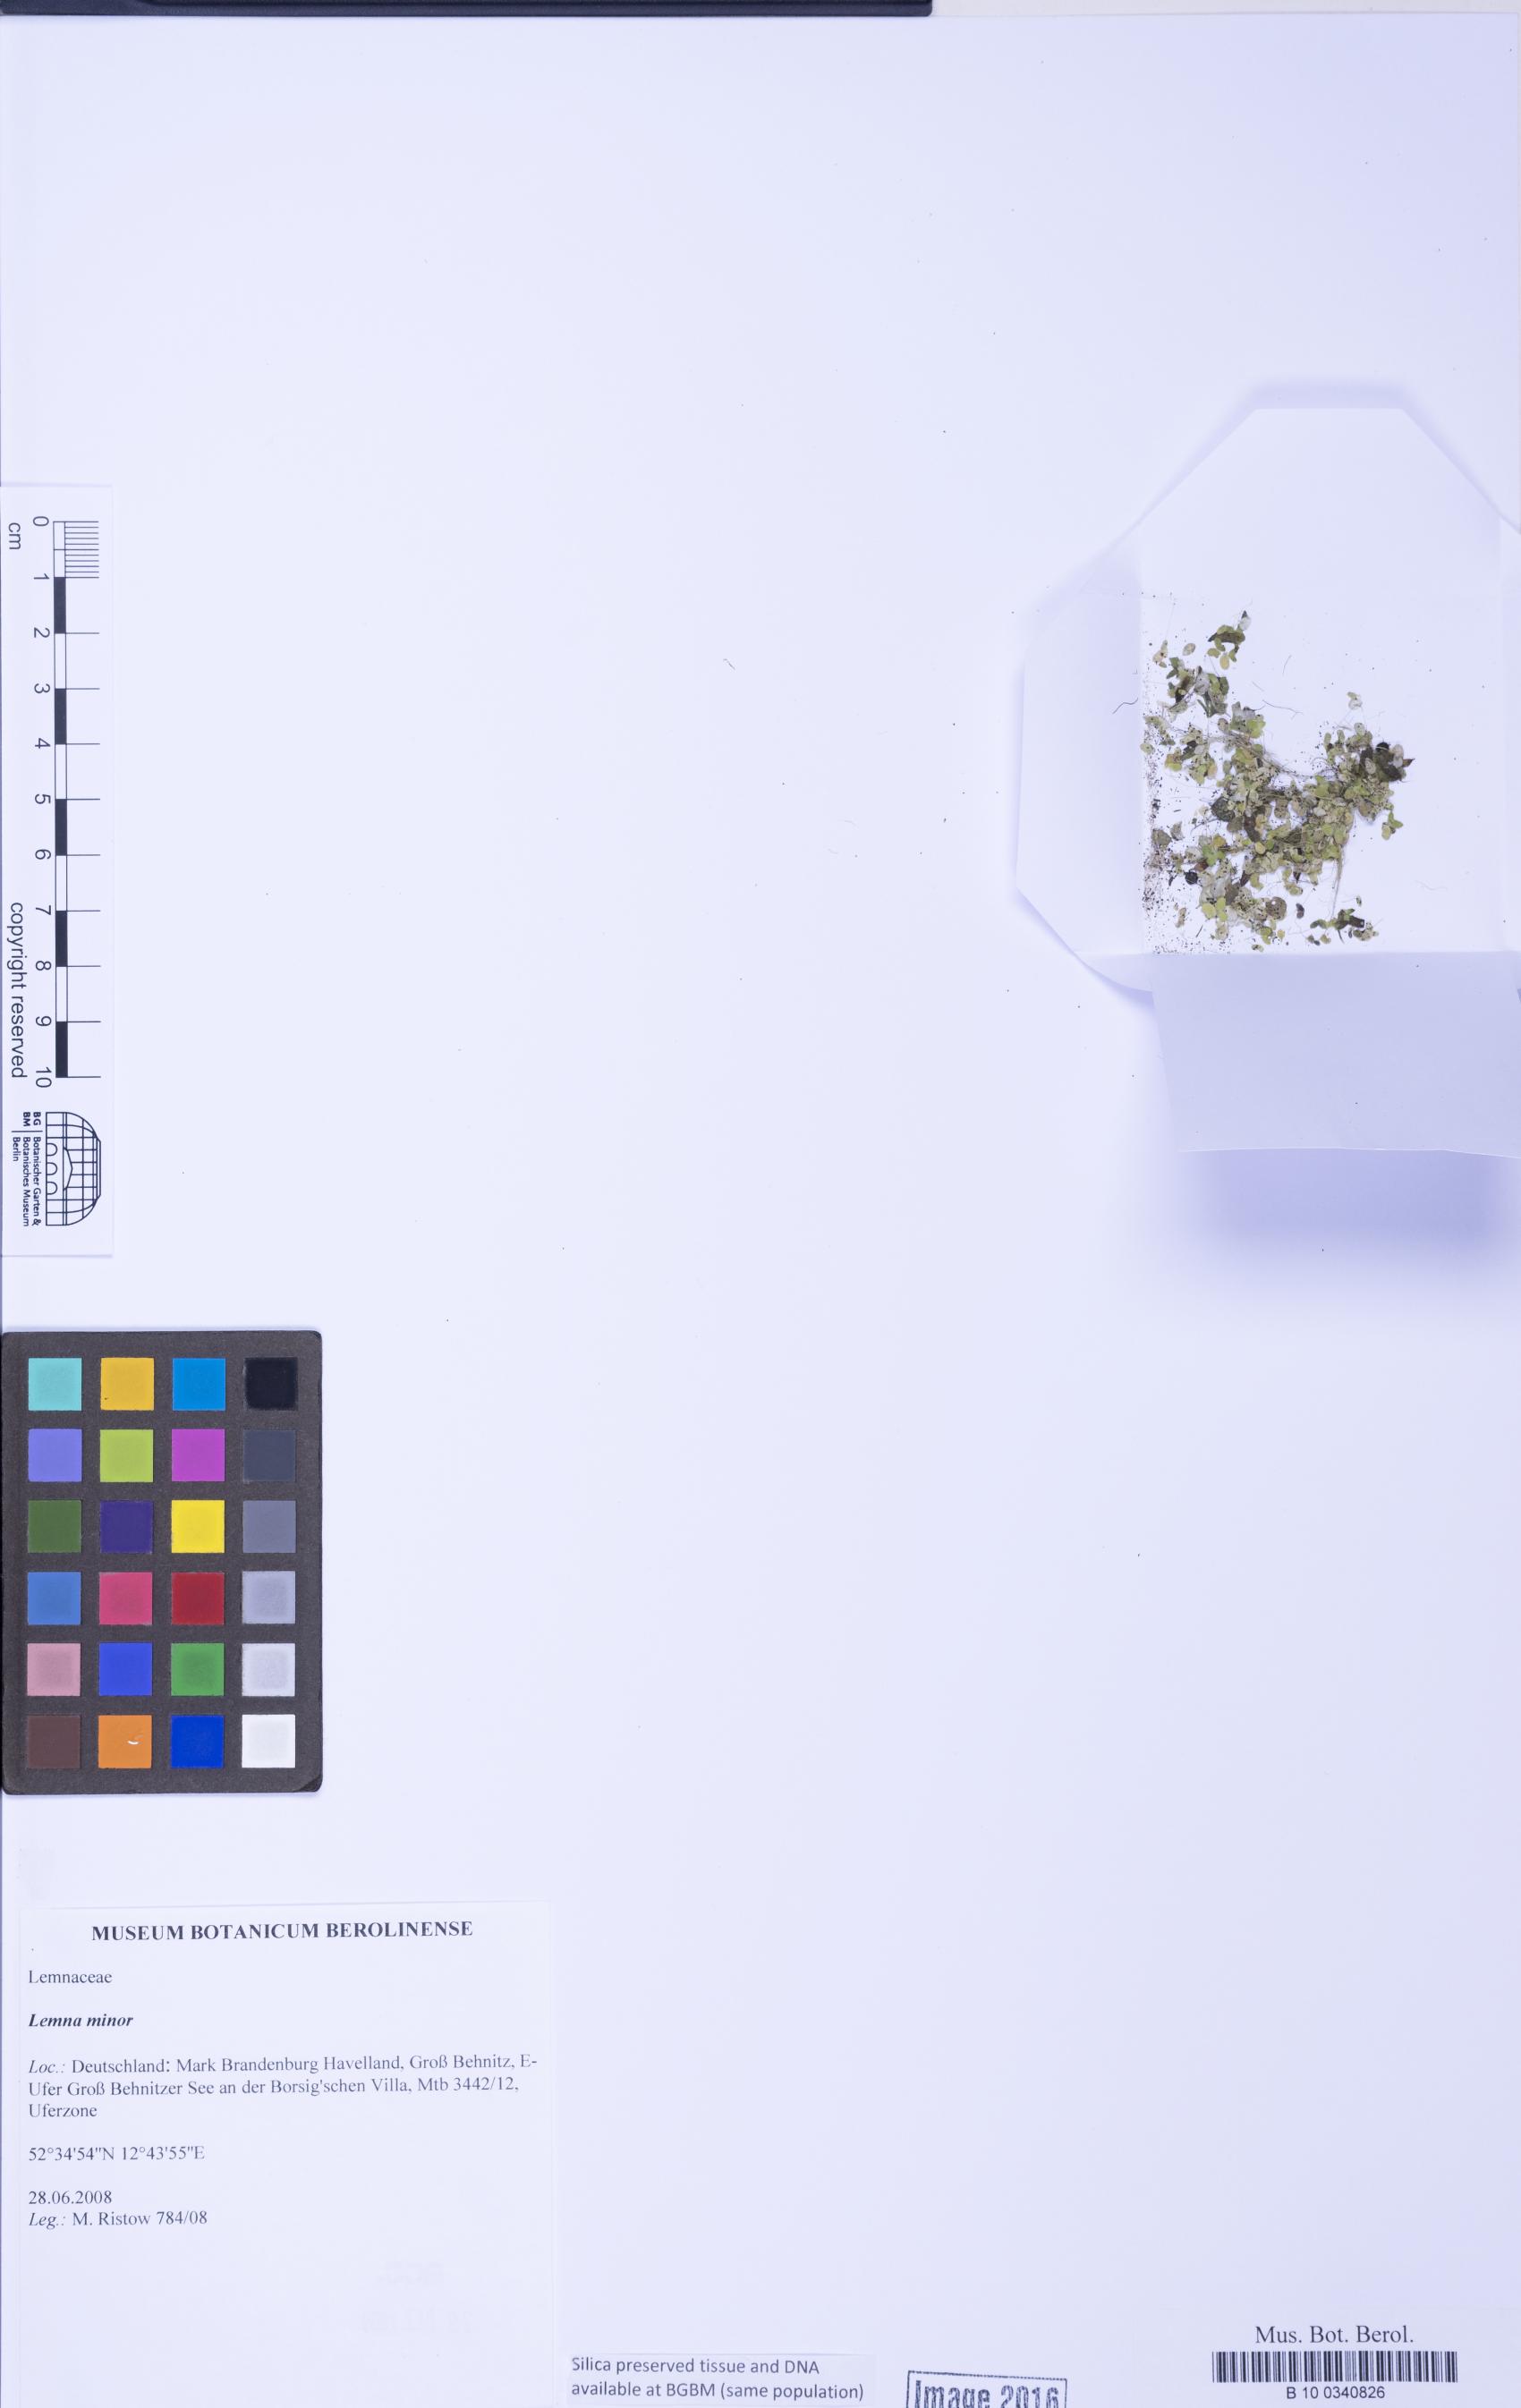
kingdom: Plantae
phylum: Tracheophyta
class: Liliopsida
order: Alismatales
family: Araceae
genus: Lemna
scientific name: Lemna minor
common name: Common duckweed
